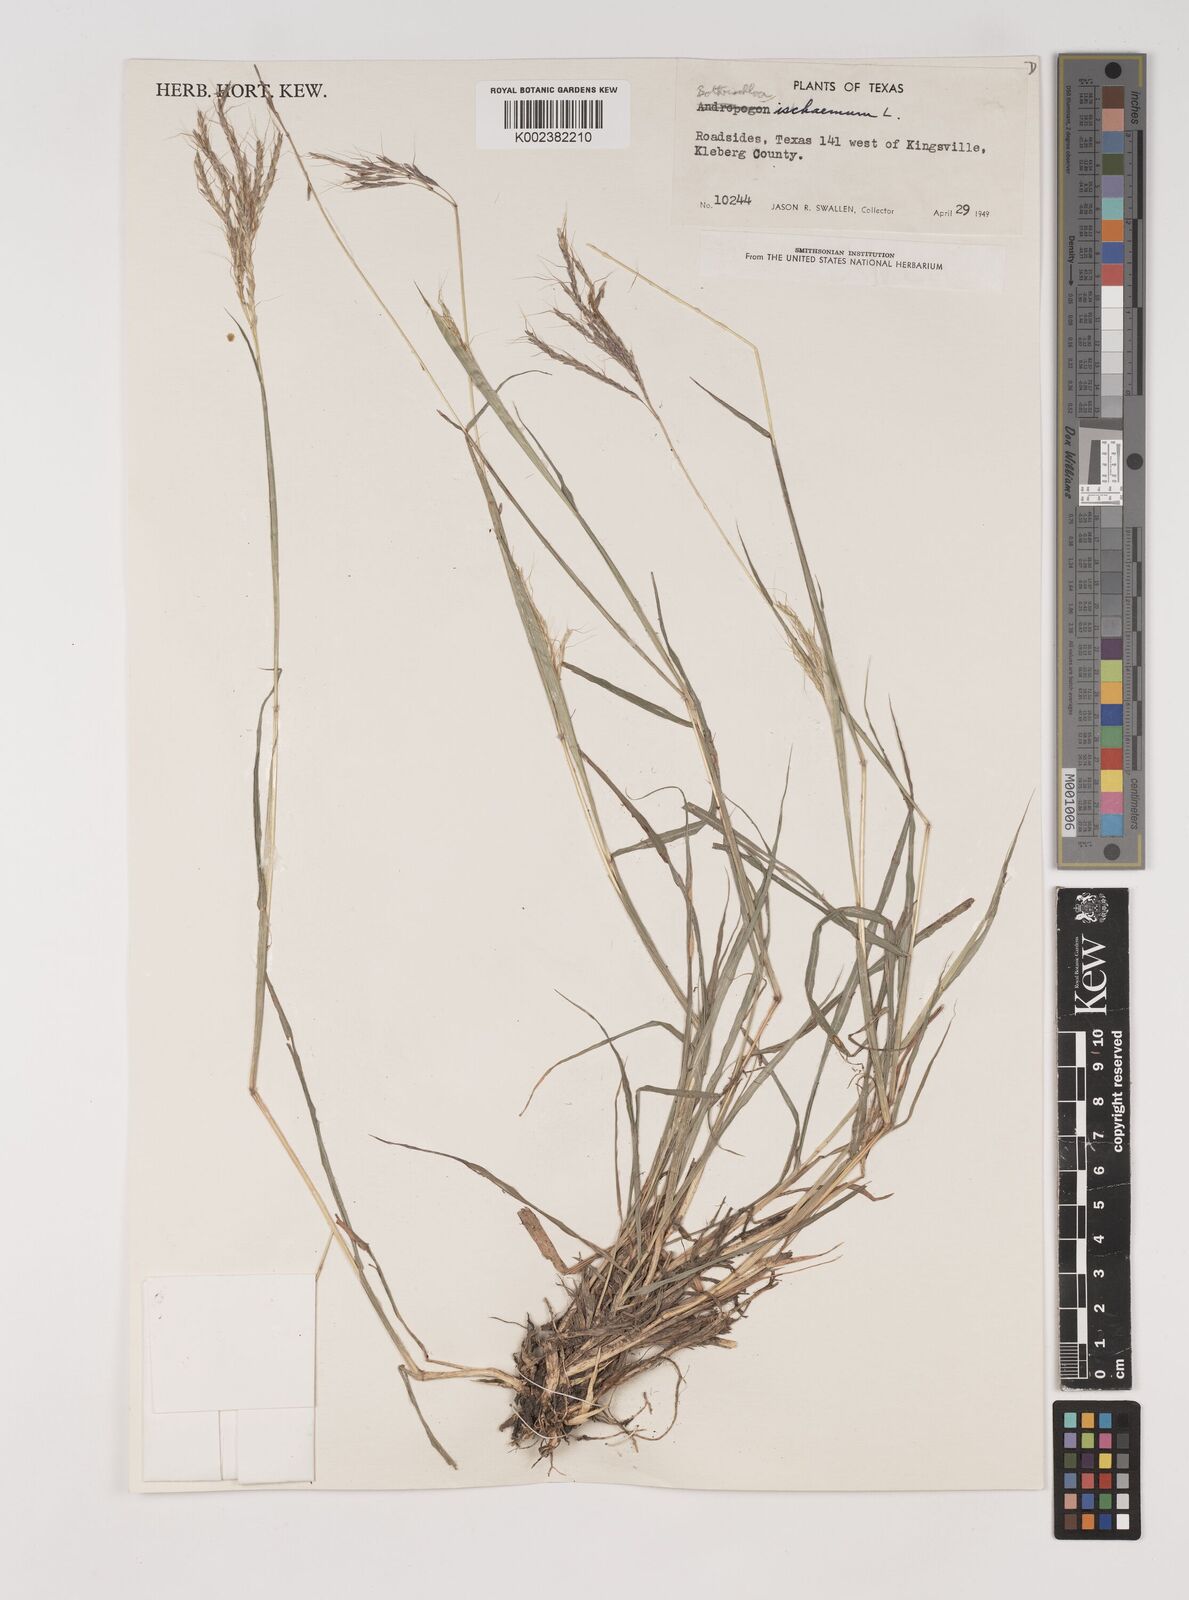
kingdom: Plantae
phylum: Tracheophyta
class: Liliopsida
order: Poales
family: Poaceae
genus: Bothriochloa
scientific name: Bothriochloa ischaemum
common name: Yellow bluestem
